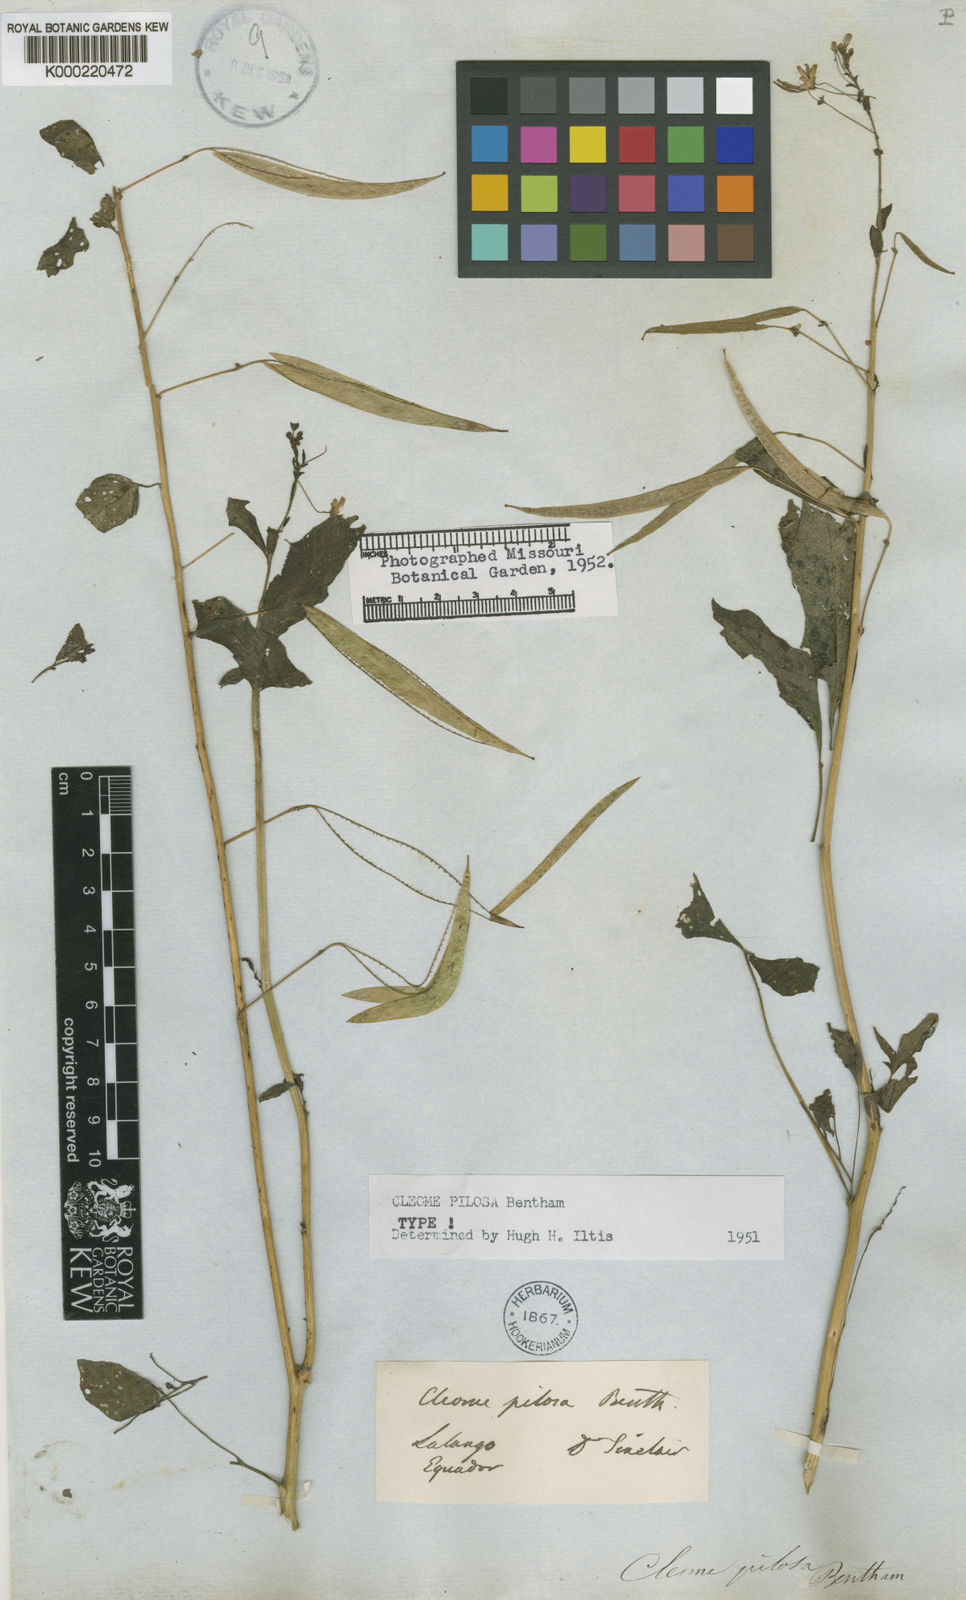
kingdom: Plantae
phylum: Tracheophyta
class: Magnoliopsida
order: Brassicales
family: Cleomaceae
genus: Cochranella
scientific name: Cochranella pilosa
